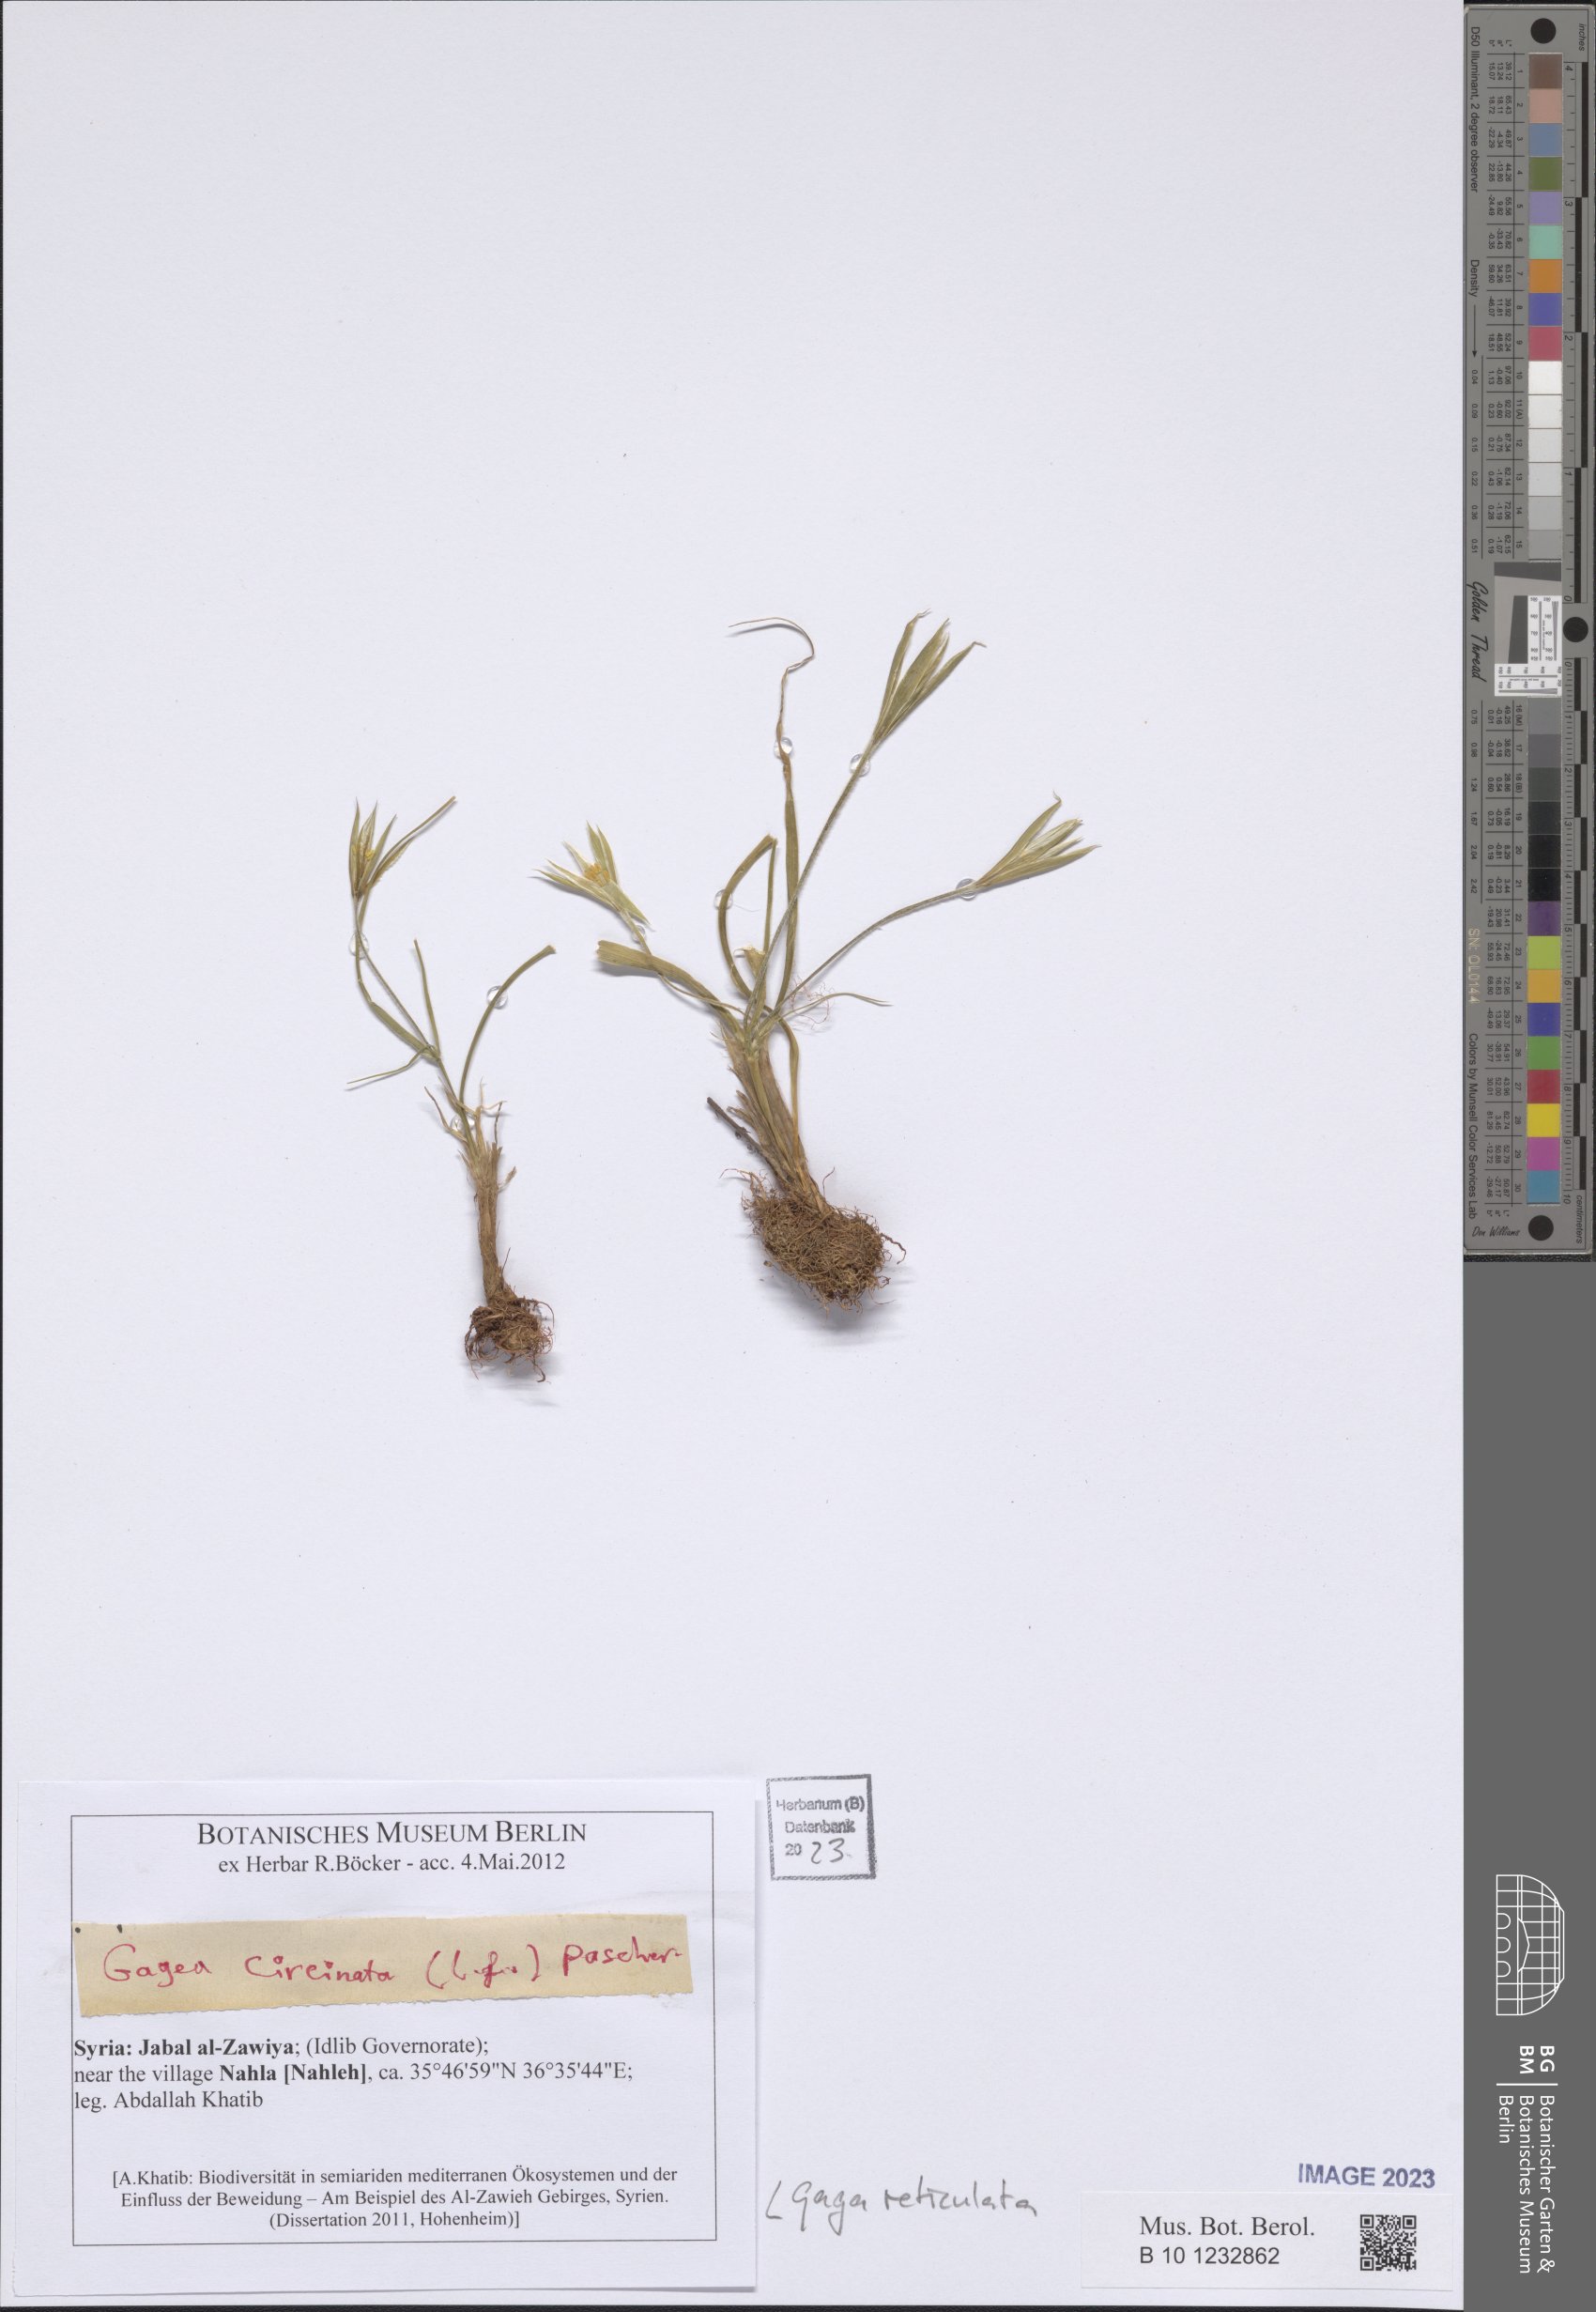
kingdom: Plantae
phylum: Tracheophyta
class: Liliopsida
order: Liliales
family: Liliaceae
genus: Gagea
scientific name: Gagea reticulata
